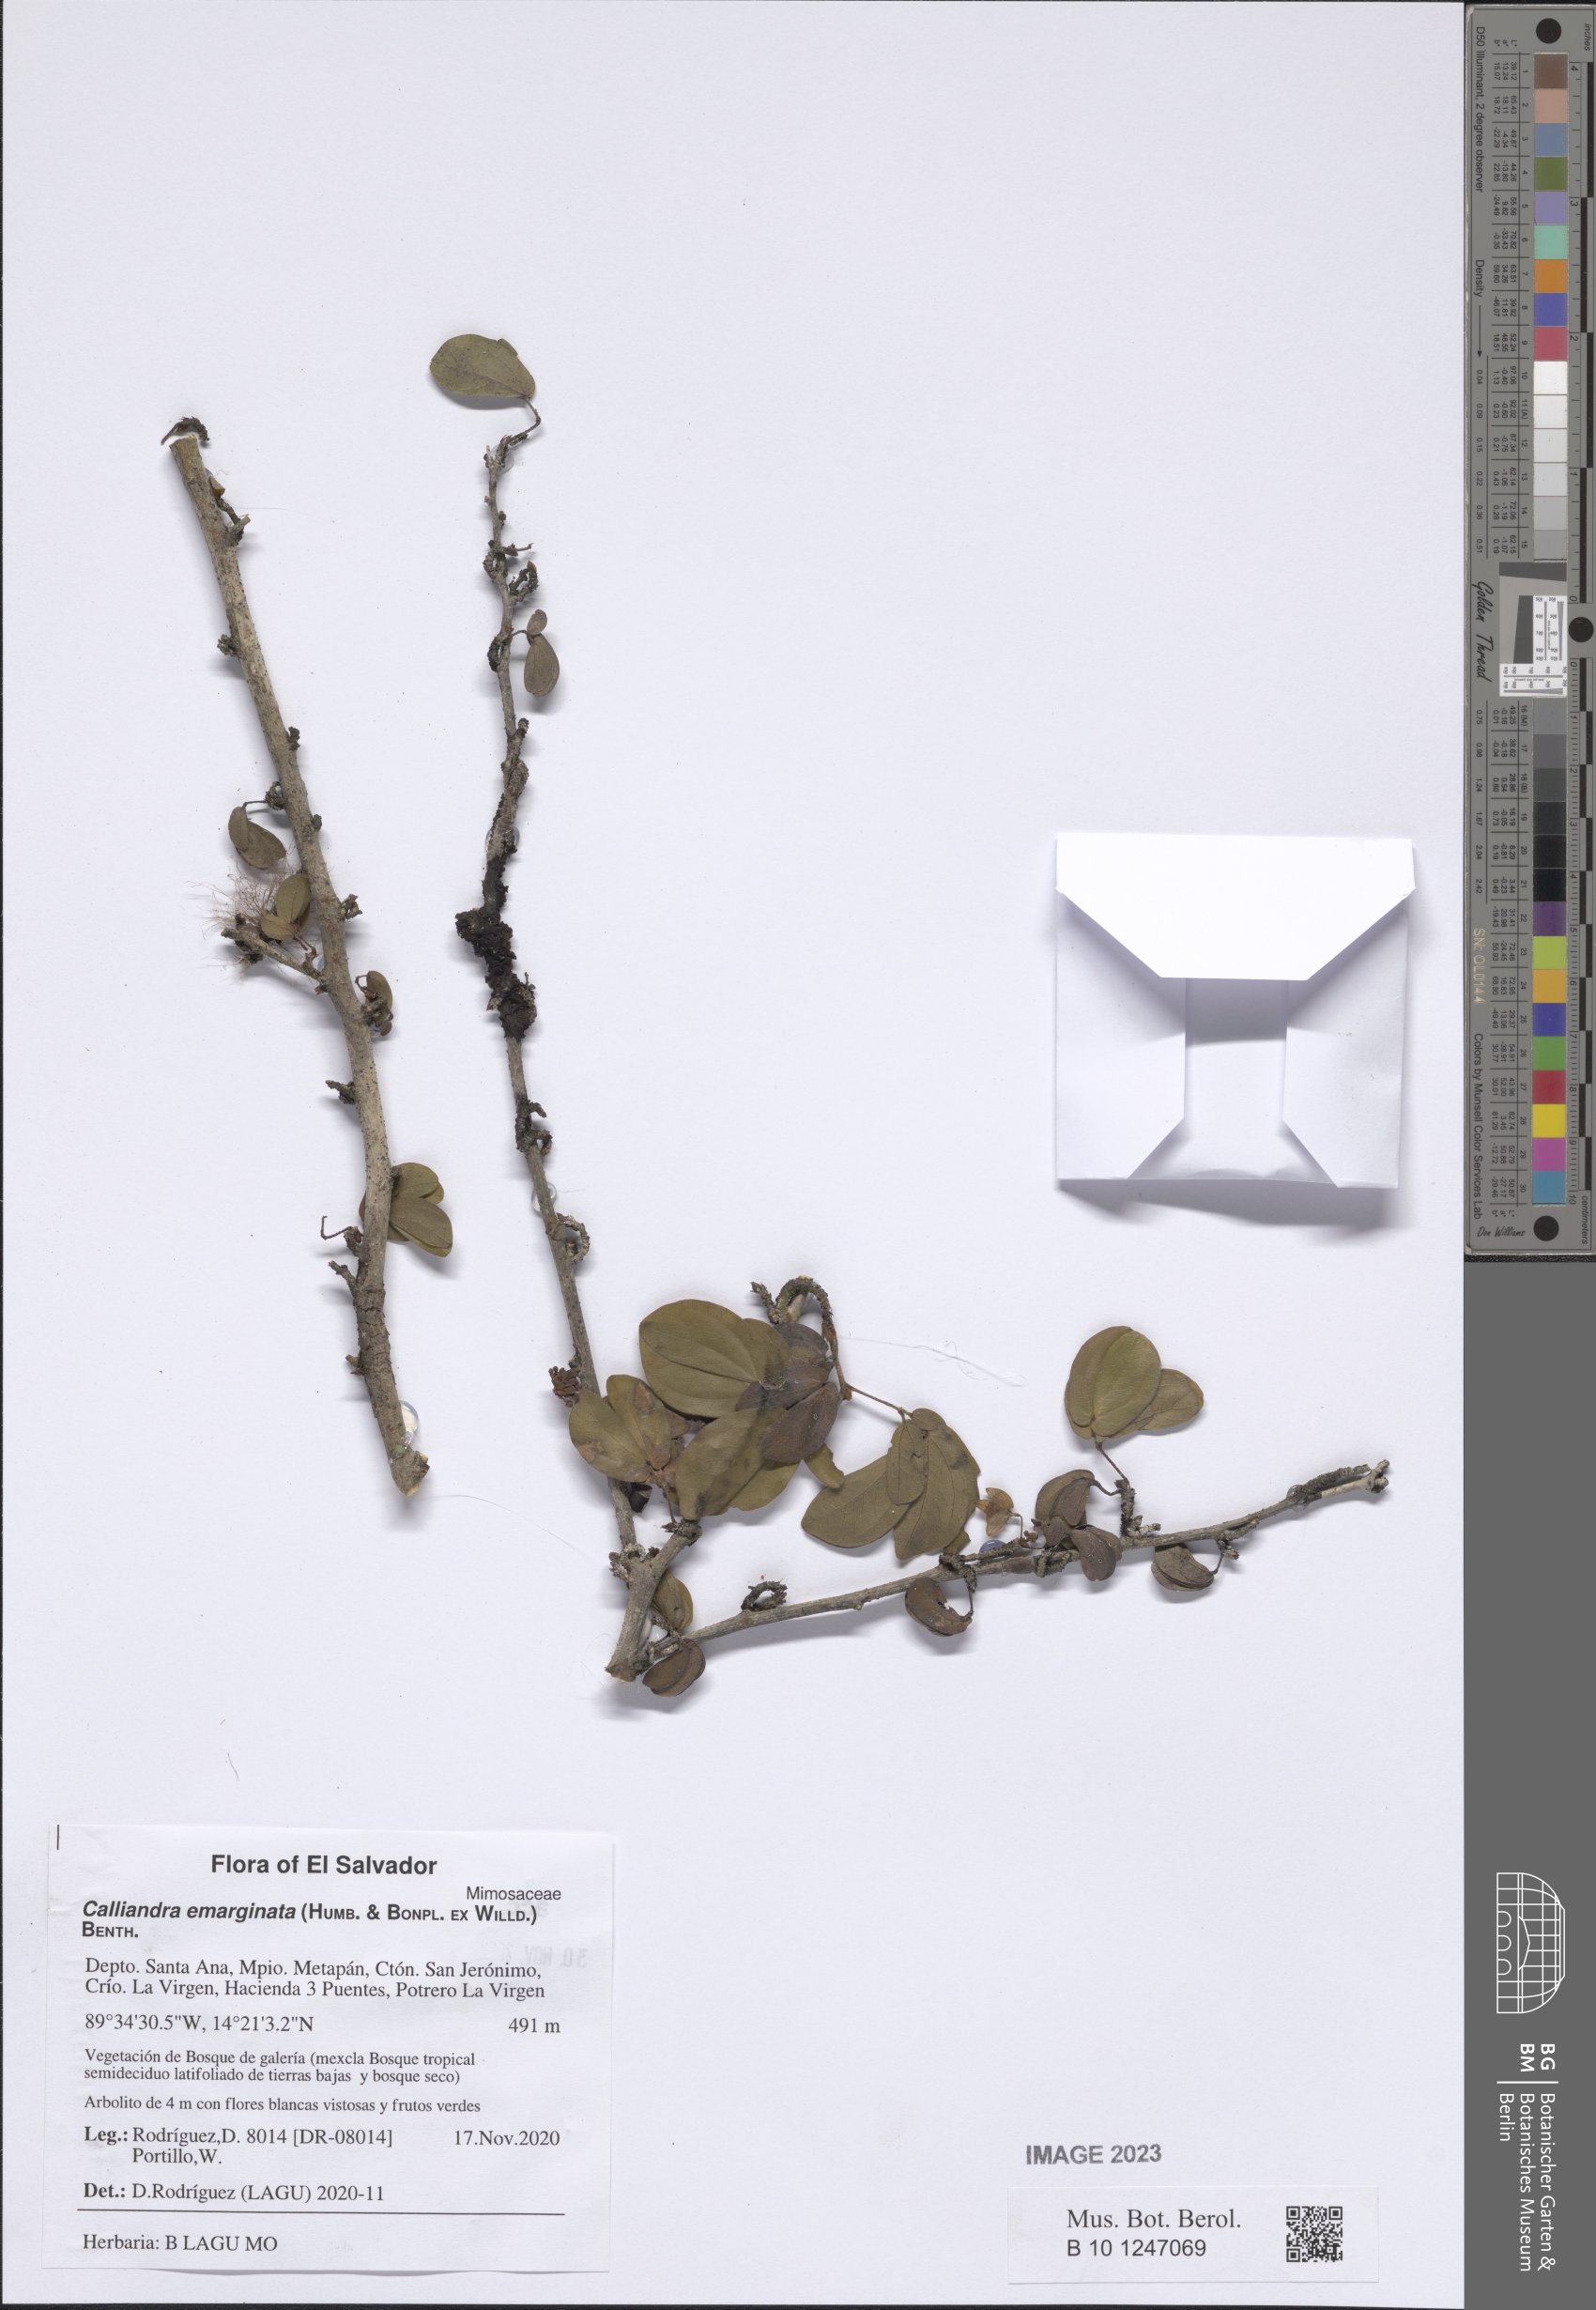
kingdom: Plantae
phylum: Tracheophyta
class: Magnoliopsida
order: Fabales
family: Fabaceae
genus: Calliandra
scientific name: Calliandra tergemina
